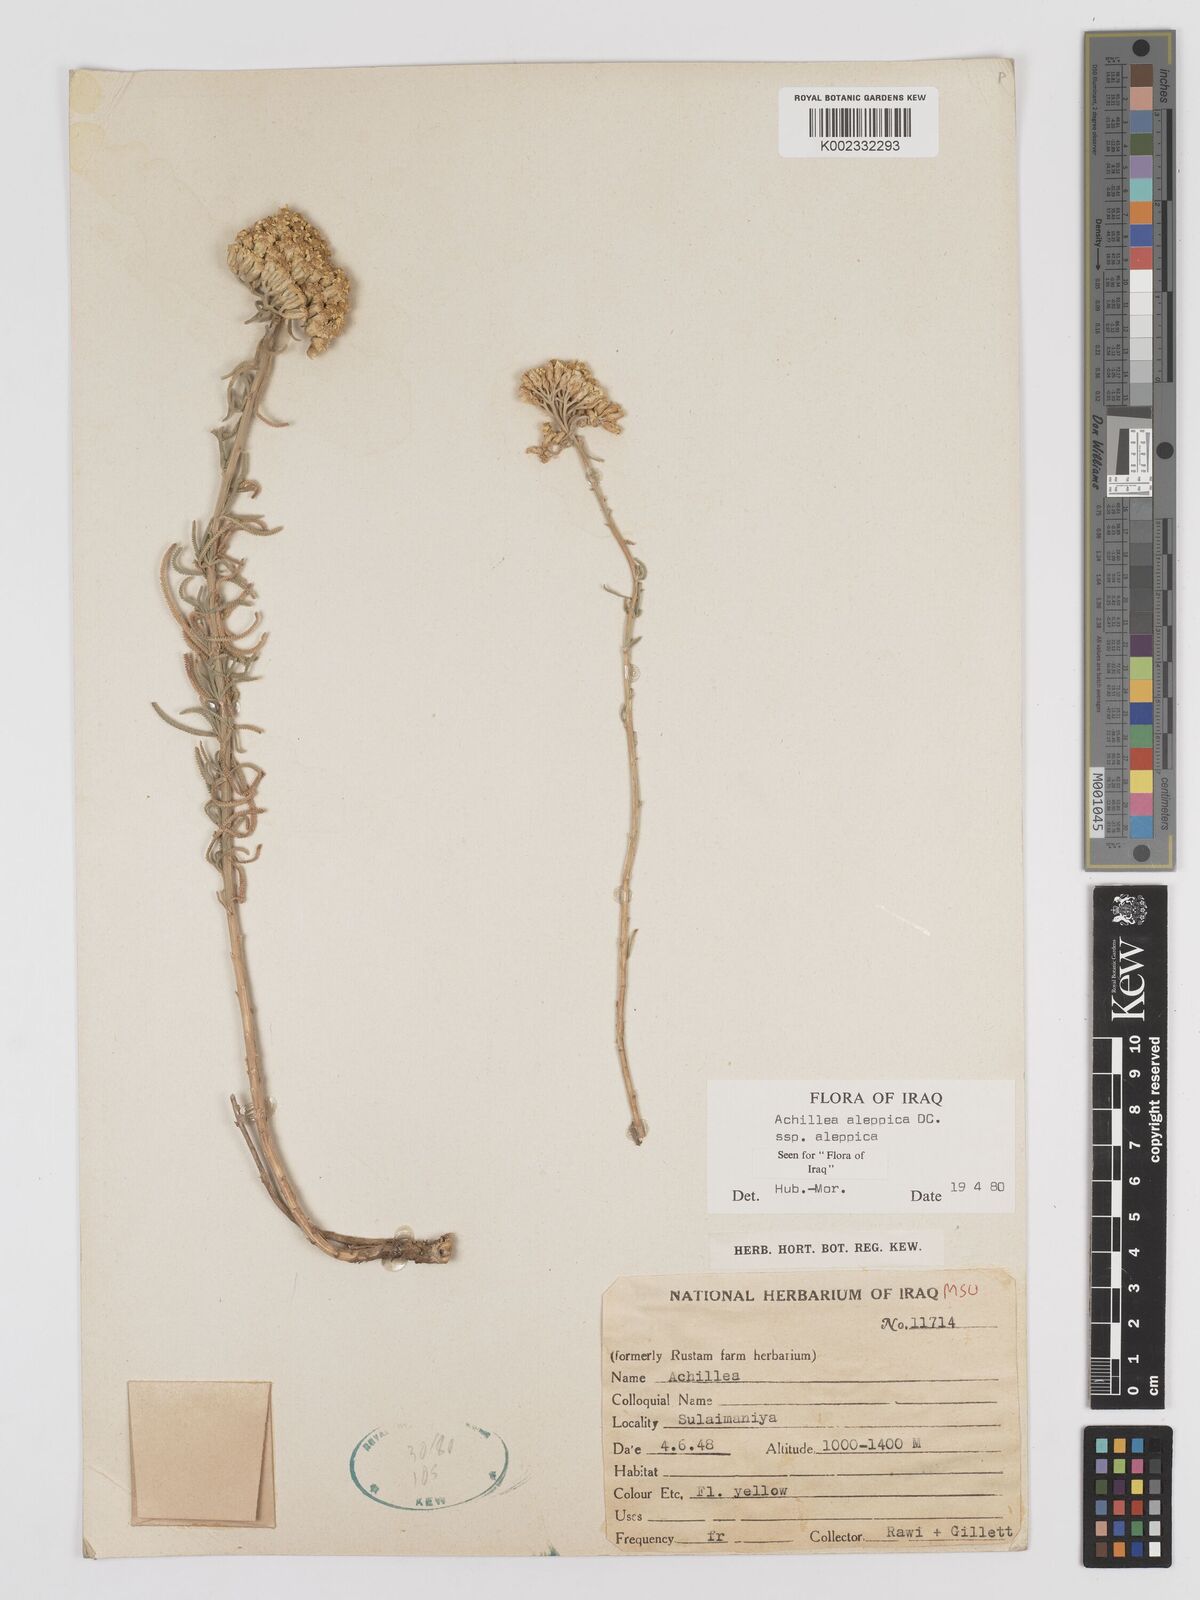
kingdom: Plantae
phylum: Tracheophyta
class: Magnoliopsida
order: Asterales
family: Asteraceae
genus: Achillea
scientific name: Achillea aleppica
